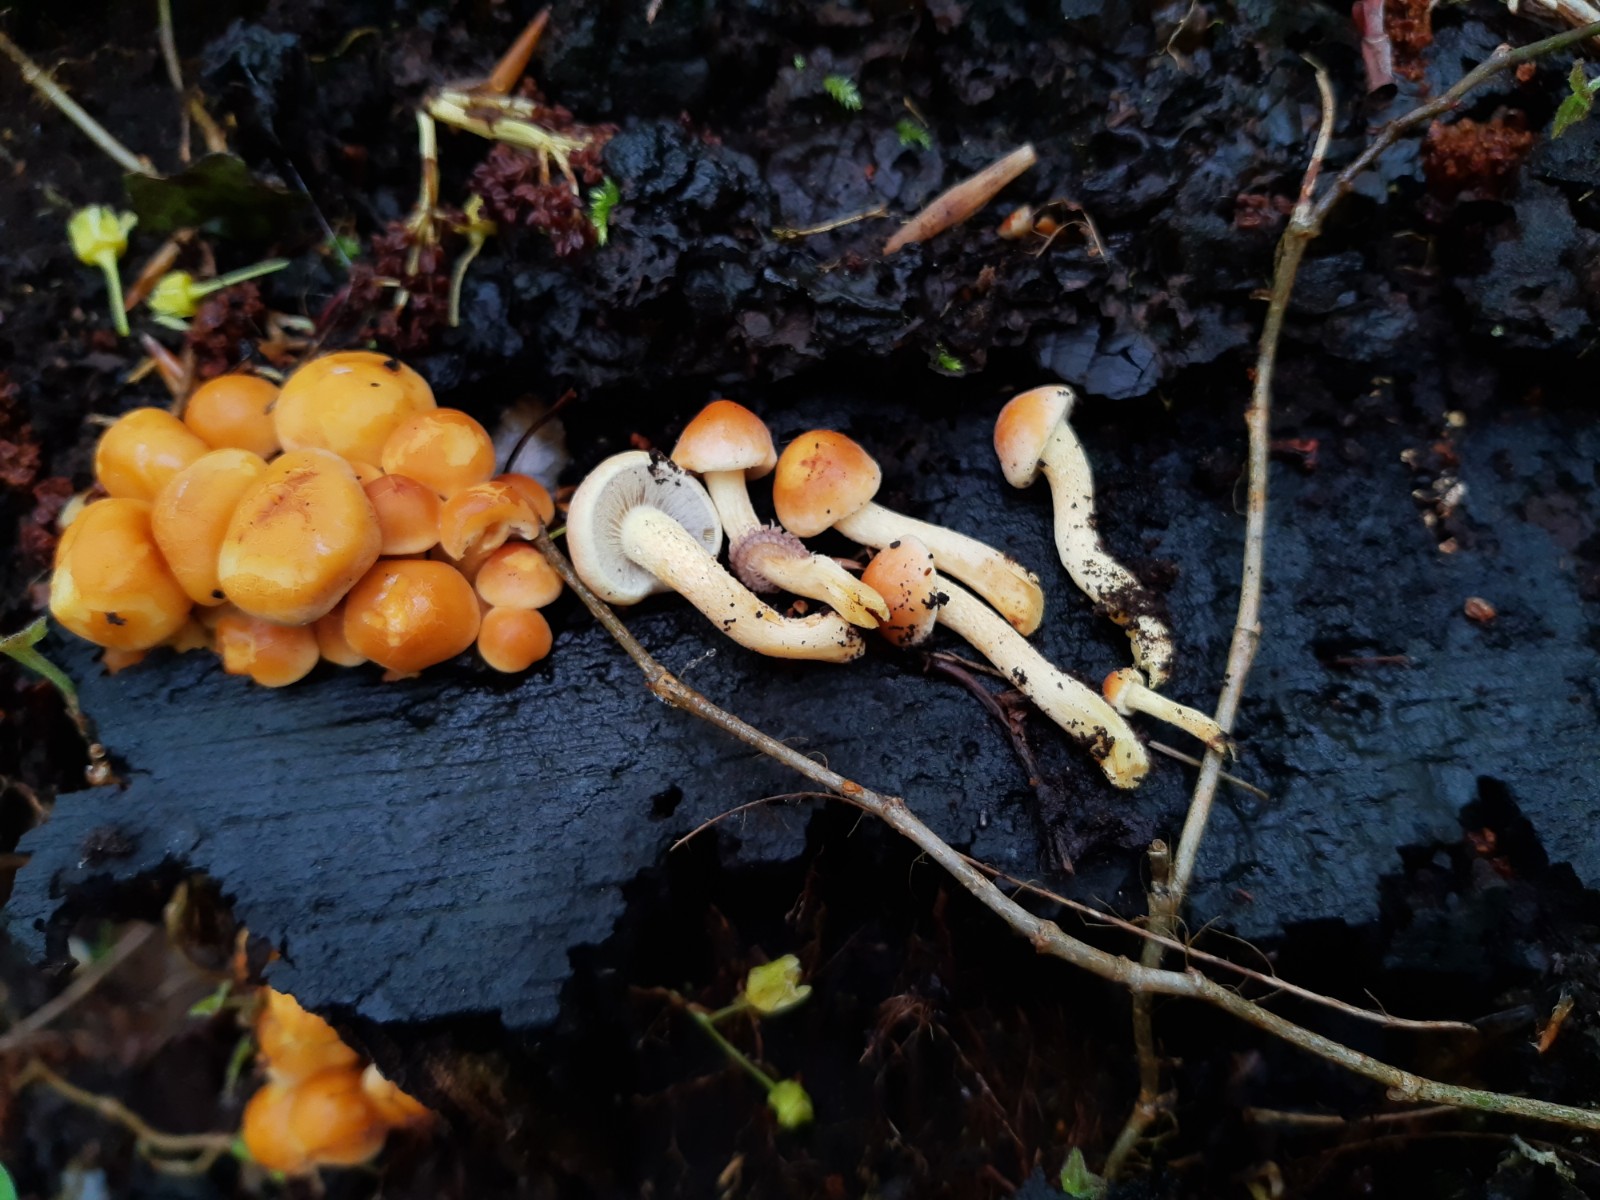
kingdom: Fungi
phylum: Basidiomycota
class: Agaricomycetes
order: Agaricales
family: Strophariaceae
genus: Hypholoma
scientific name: Hypholoma fasciculare
